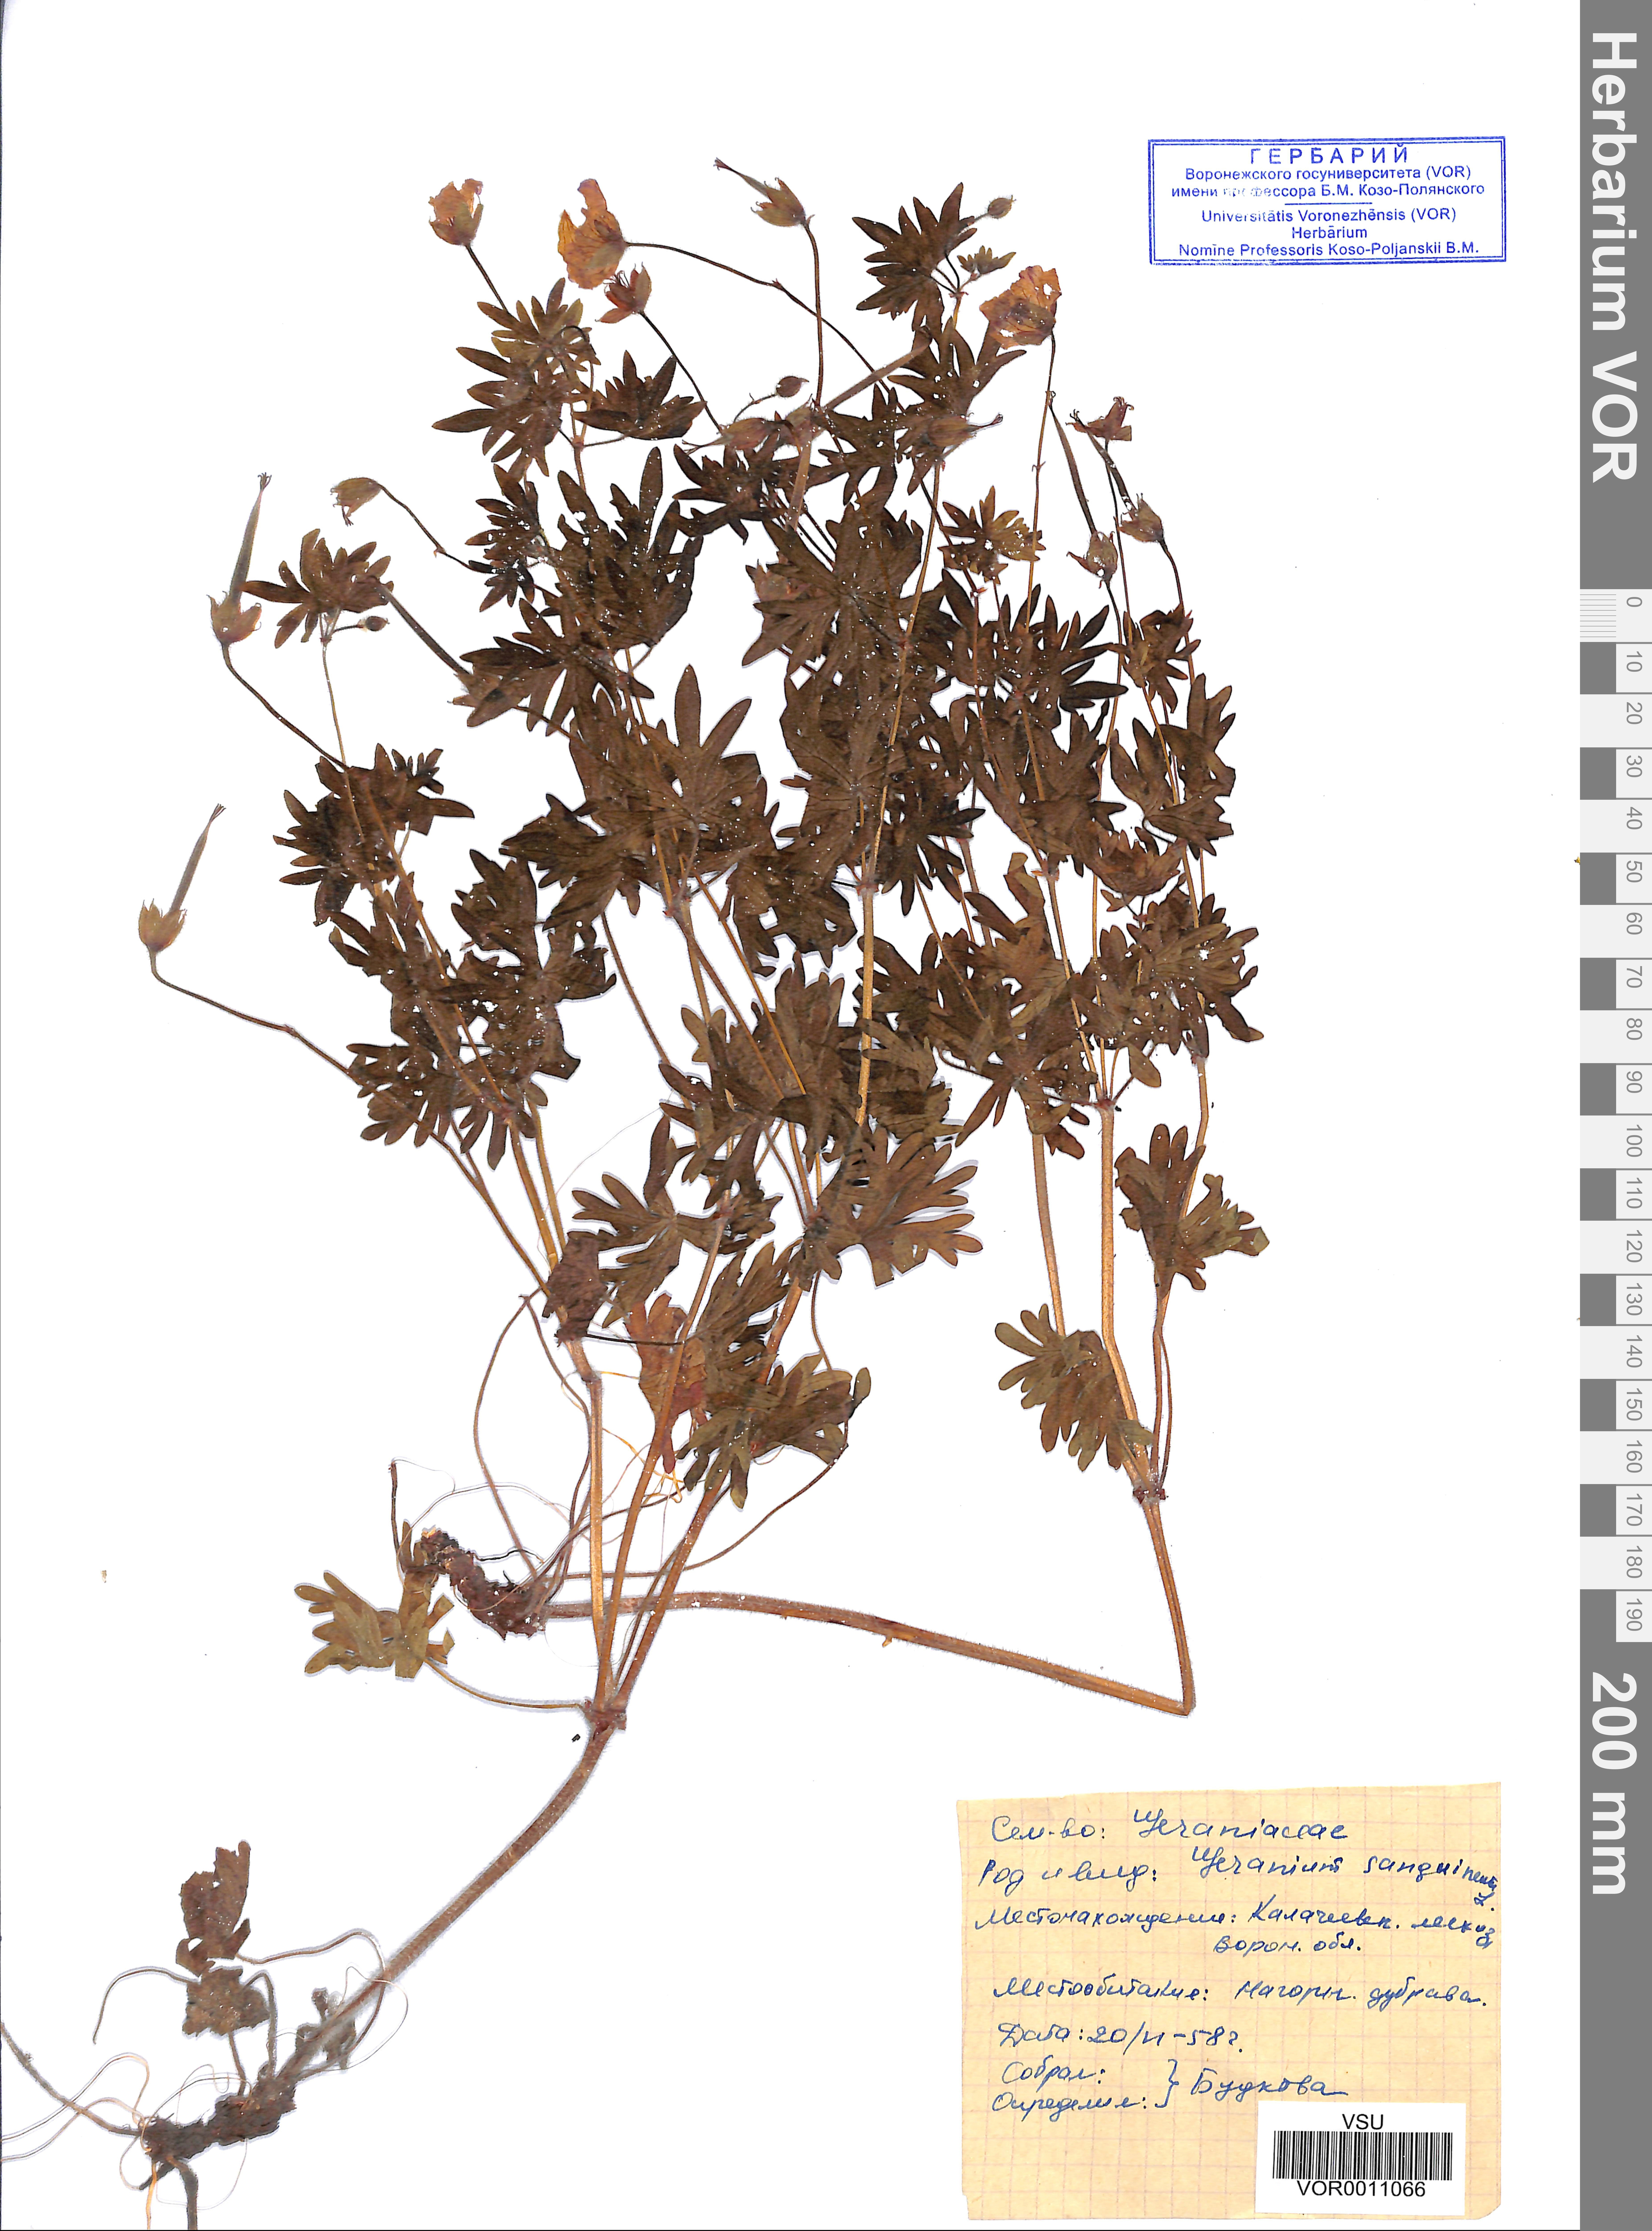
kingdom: Plantae
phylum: Tracheophyta
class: Magnoliopsida
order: Geraniales
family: Geraniaceae
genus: Geranium
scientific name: Geranium sanguineum
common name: Bloody crane's-bill
